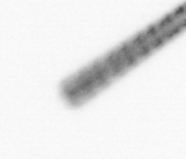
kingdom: Chromista
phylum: Ochrophyta
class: Bacillariophyceae
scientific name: Bacillariophyceae
